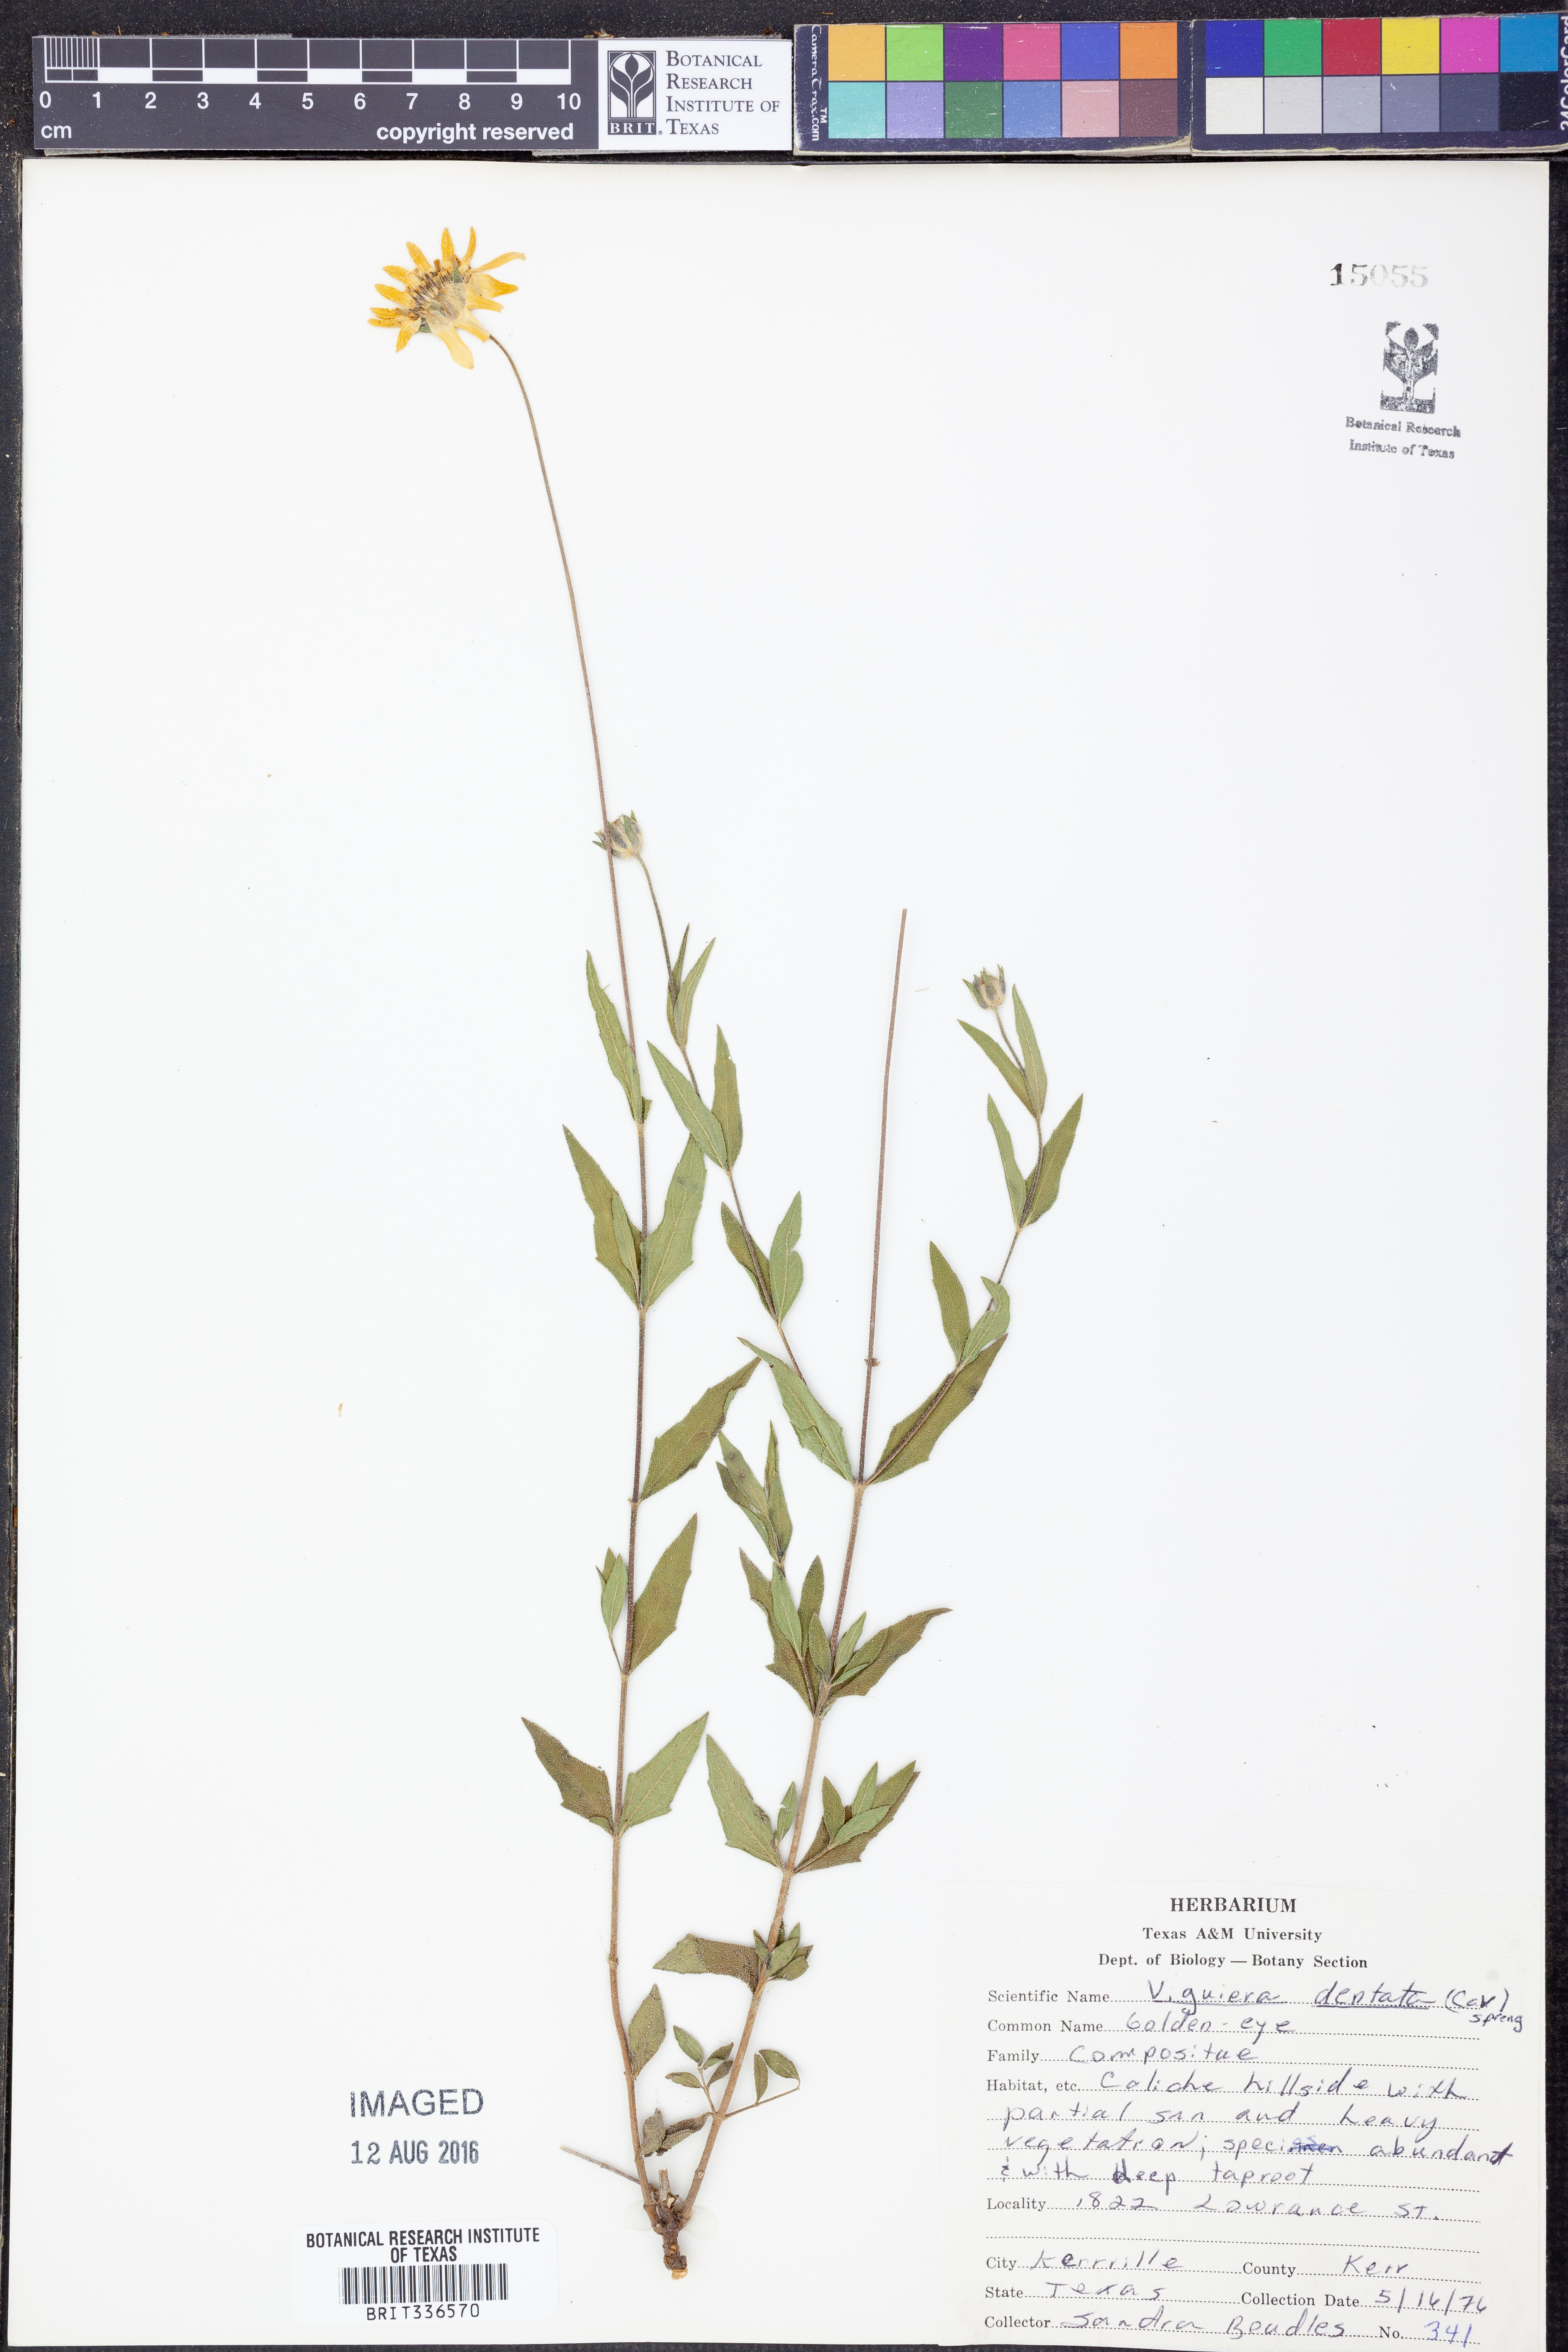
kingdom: Plantae
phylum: Tracheophyta
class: Magnoliopsida
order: Asterales
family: Asteraceae
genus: Viguiera
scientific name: Viguiera dentata
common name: Toothleaf
